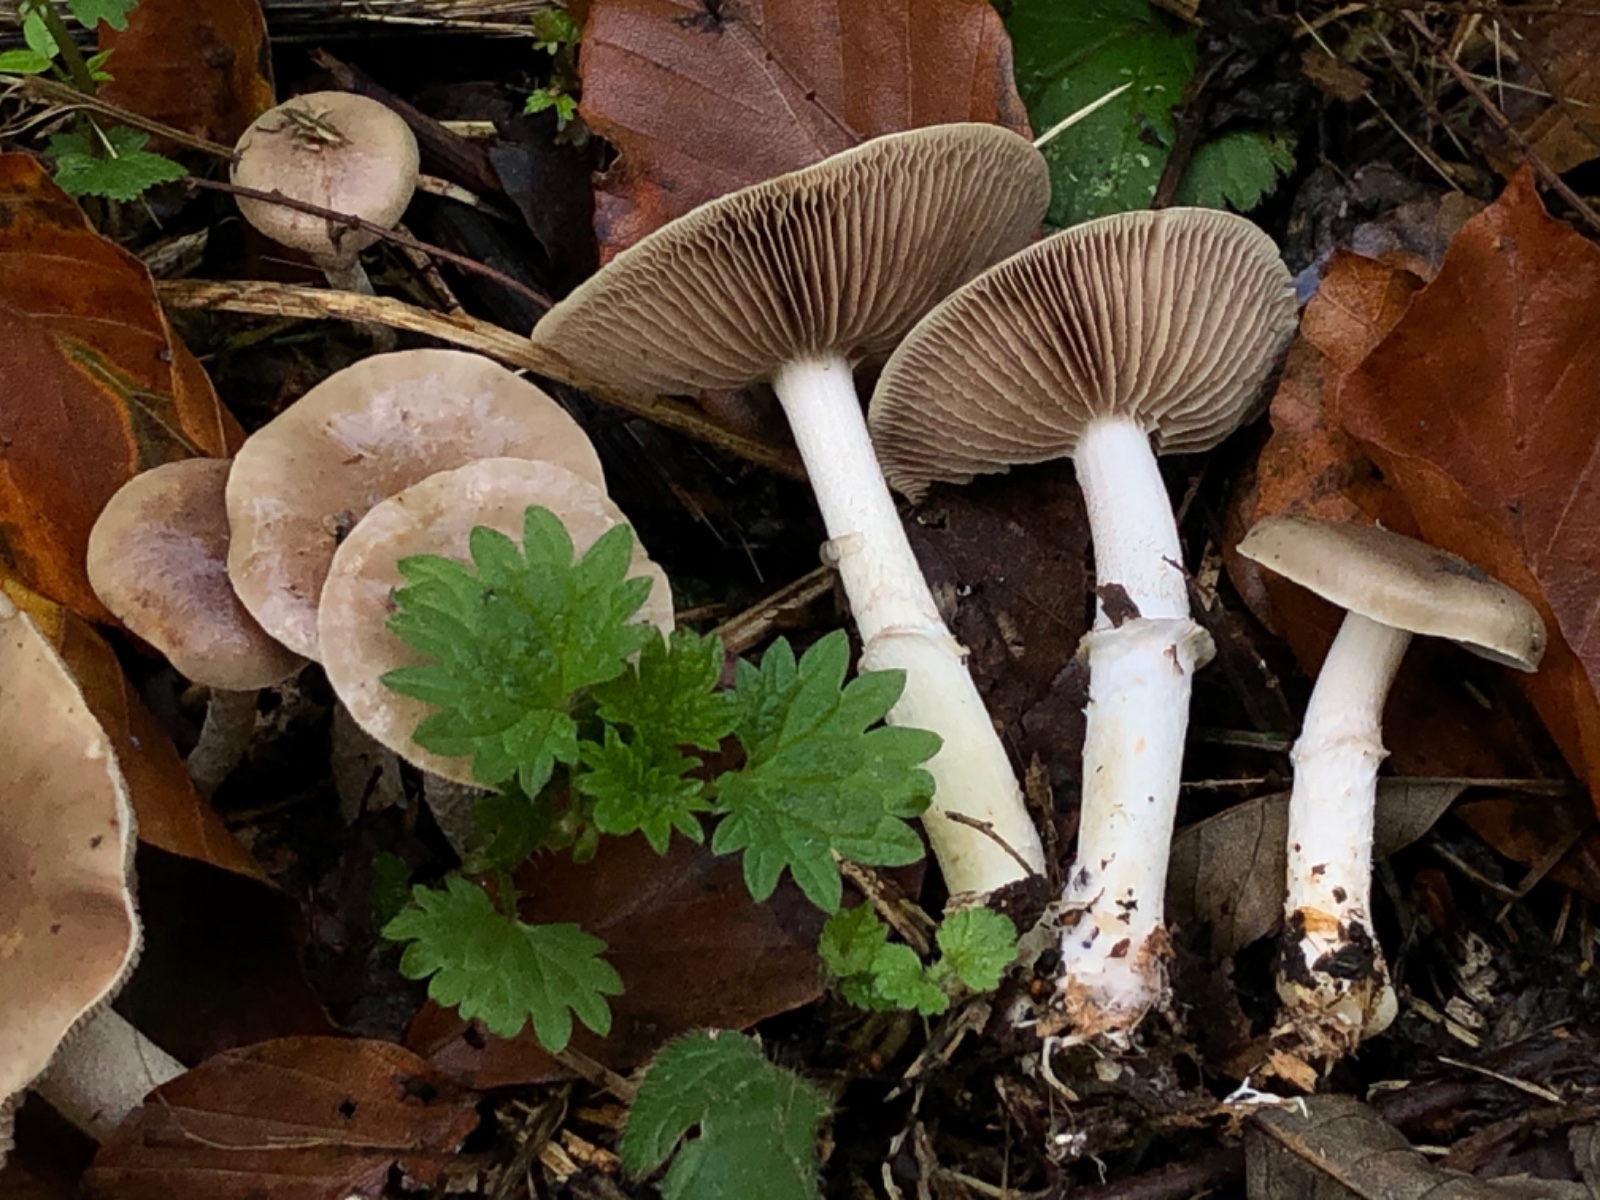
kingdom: Fungi
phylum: Basidiomycota
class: Agaricomycetes
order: Agaricales
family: Strophariaceae
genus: Stropharia
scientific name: Stropharia
